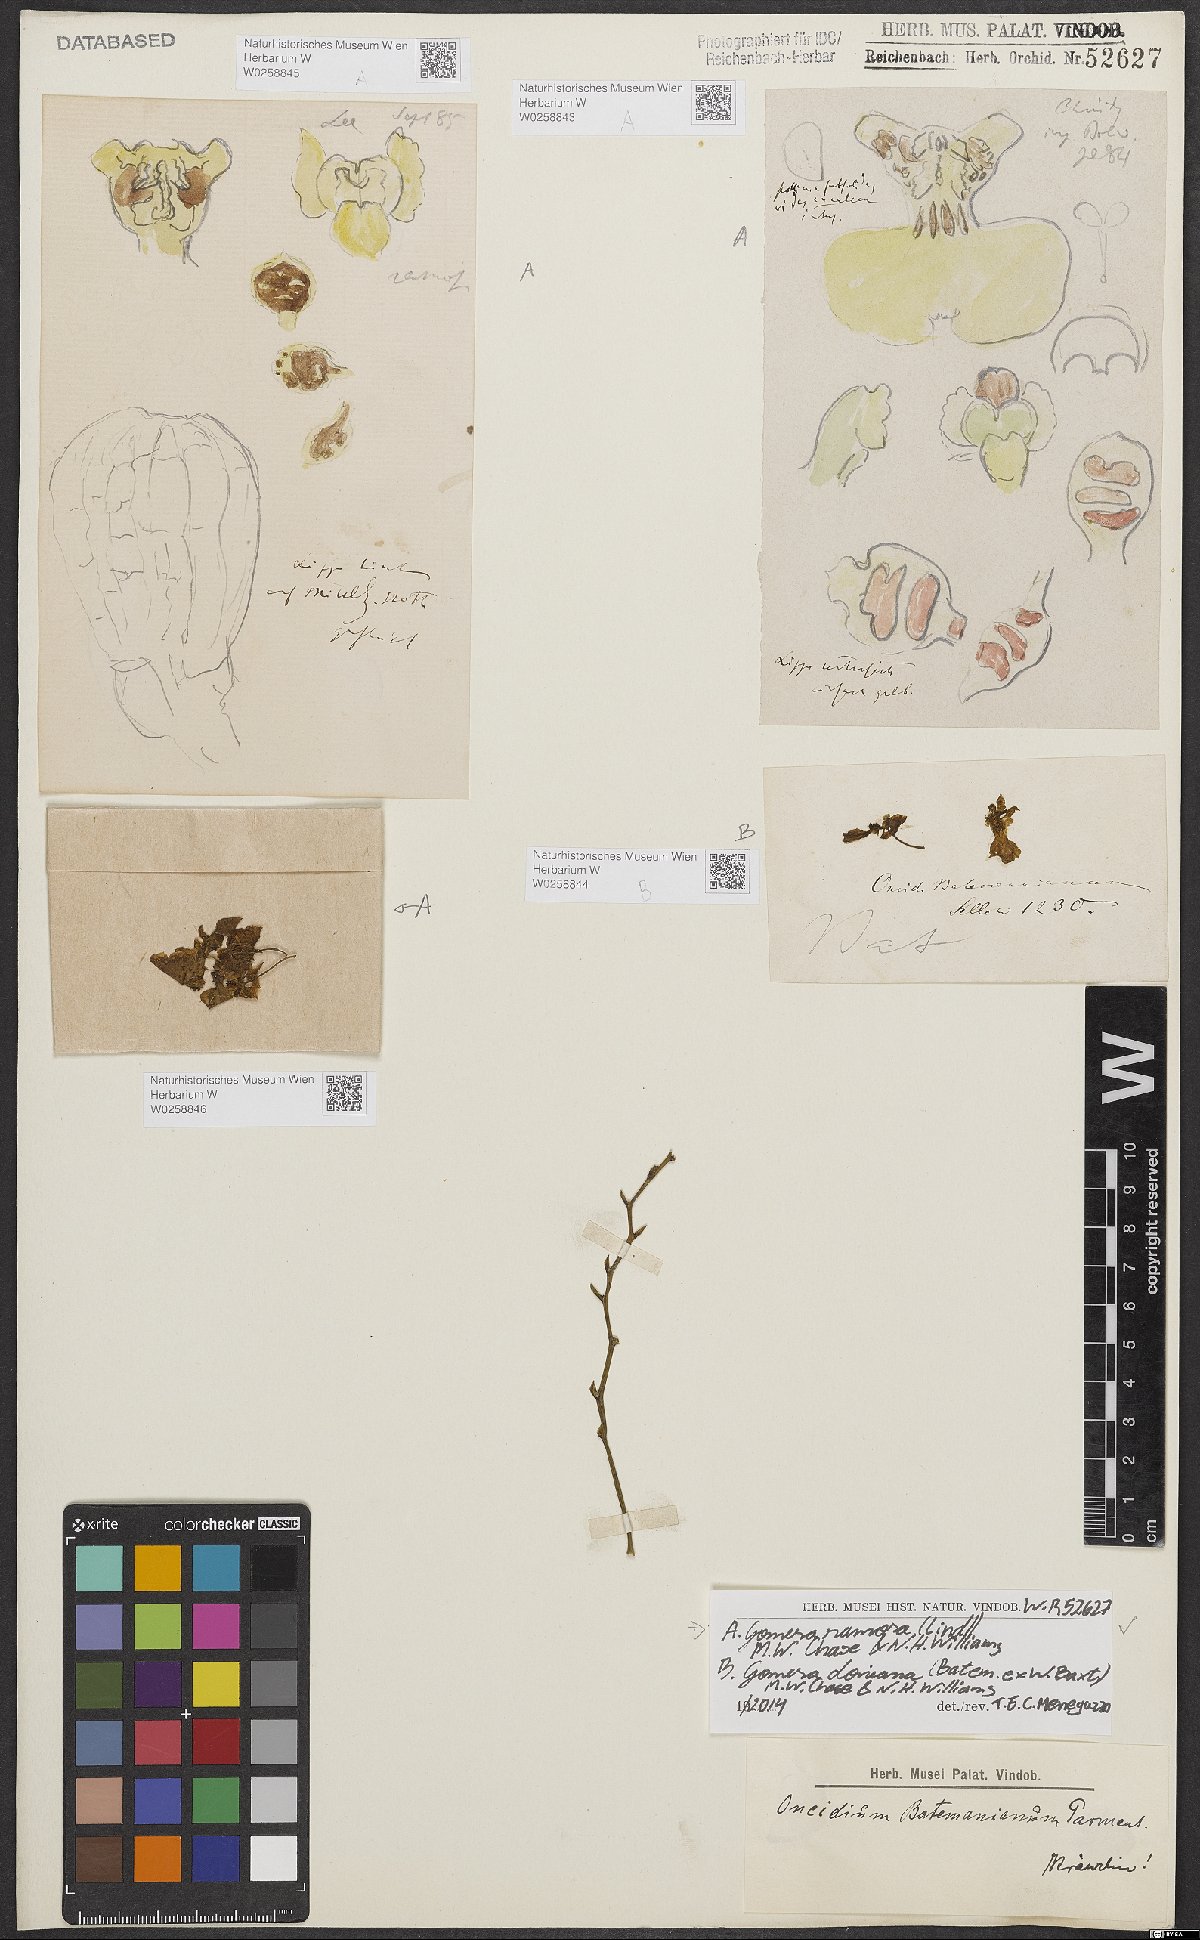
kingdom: Plantae
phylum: Tracheophyta
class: Liliopsida
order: Asparagales
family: Orchidaceae
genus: Gomesa
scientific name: Gomesa ramosa
